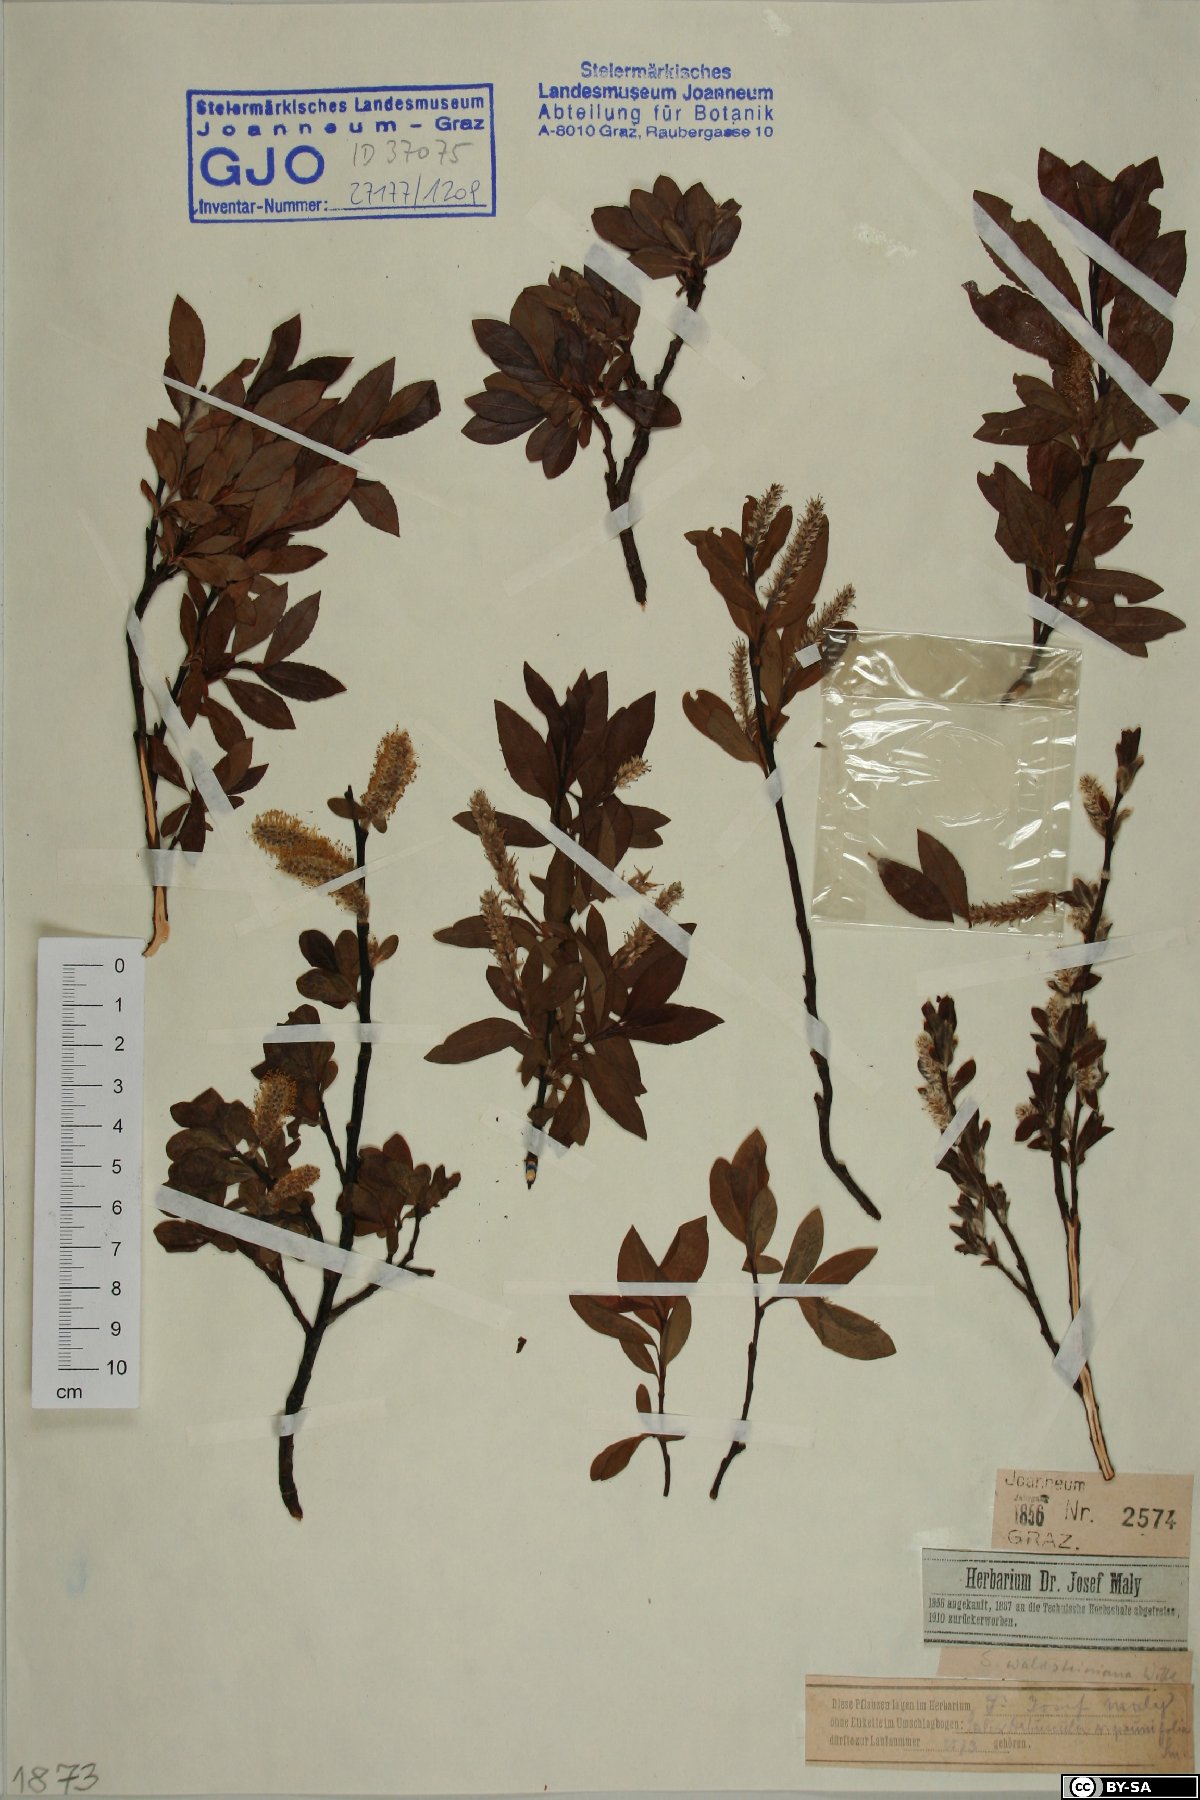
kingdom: Plantae
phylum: Tracheophyta
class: Magnoliopsida
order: Malpighiales
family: Salicaceae
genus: Salix
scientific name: Salix waldsteiniana
